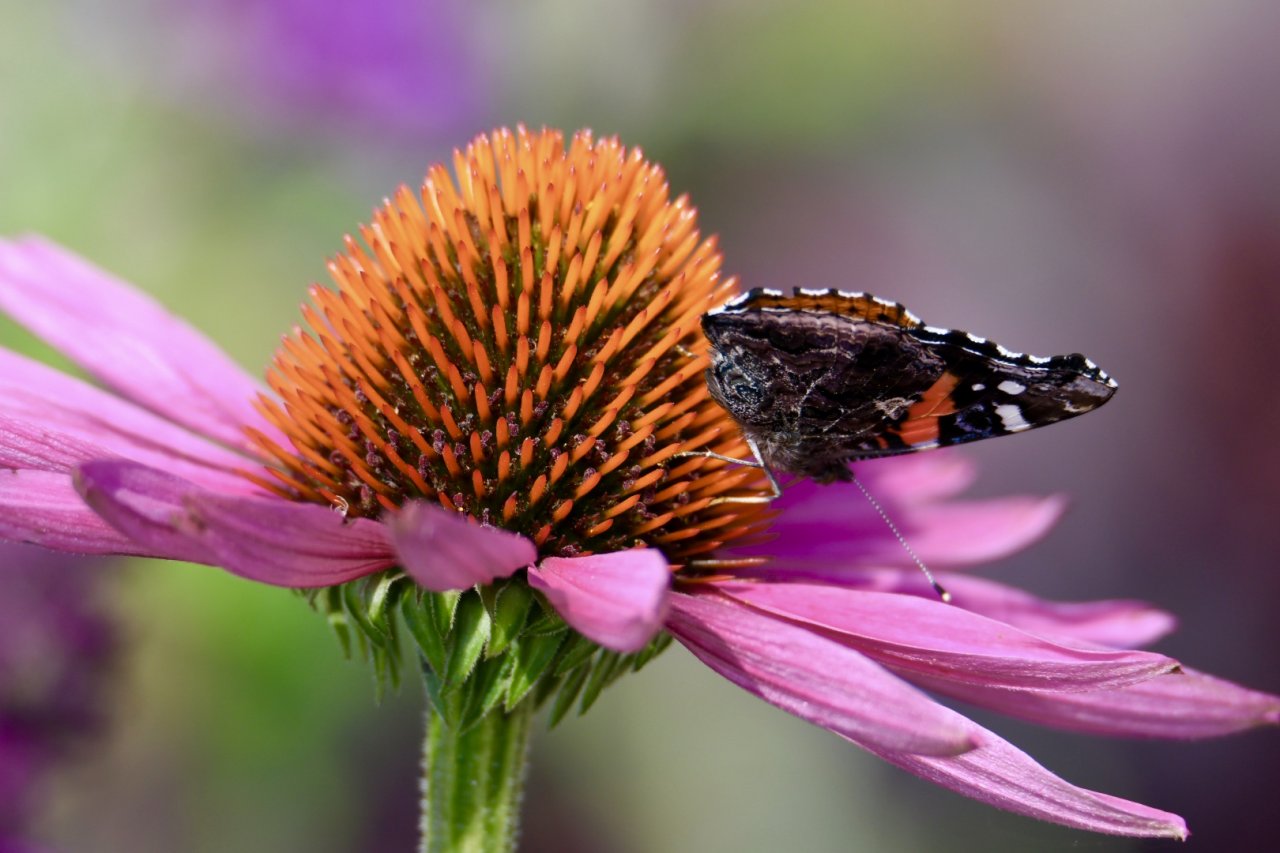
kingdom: Animalia
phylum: Arthropoda
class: Insecta
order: Lepidoptera
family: Nymphalidae
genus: Vanessa
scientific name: Vanessa atalanta
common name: Red Admiral
